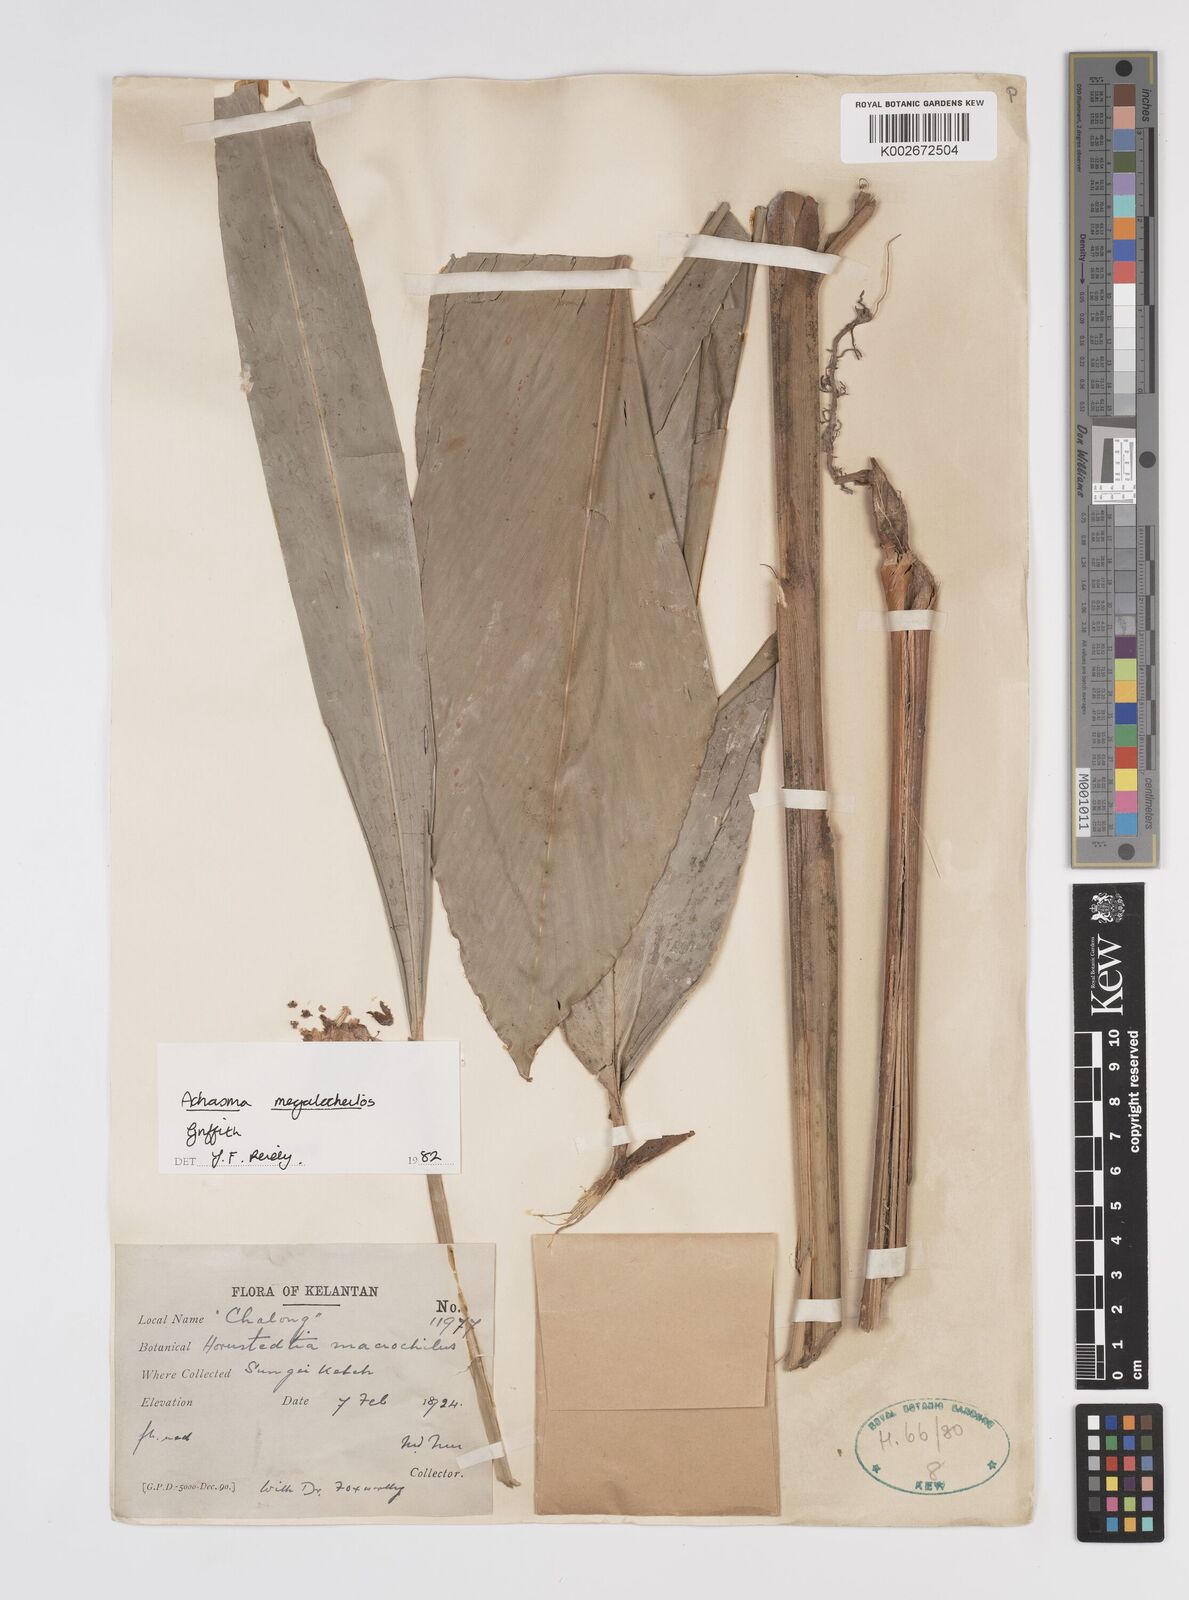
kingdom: Plantae
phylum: Tracheophyta
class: Liliopsida
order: Zingiberales
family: Zingiberaceae
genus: Etlingera
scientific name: Etlingera punicea
